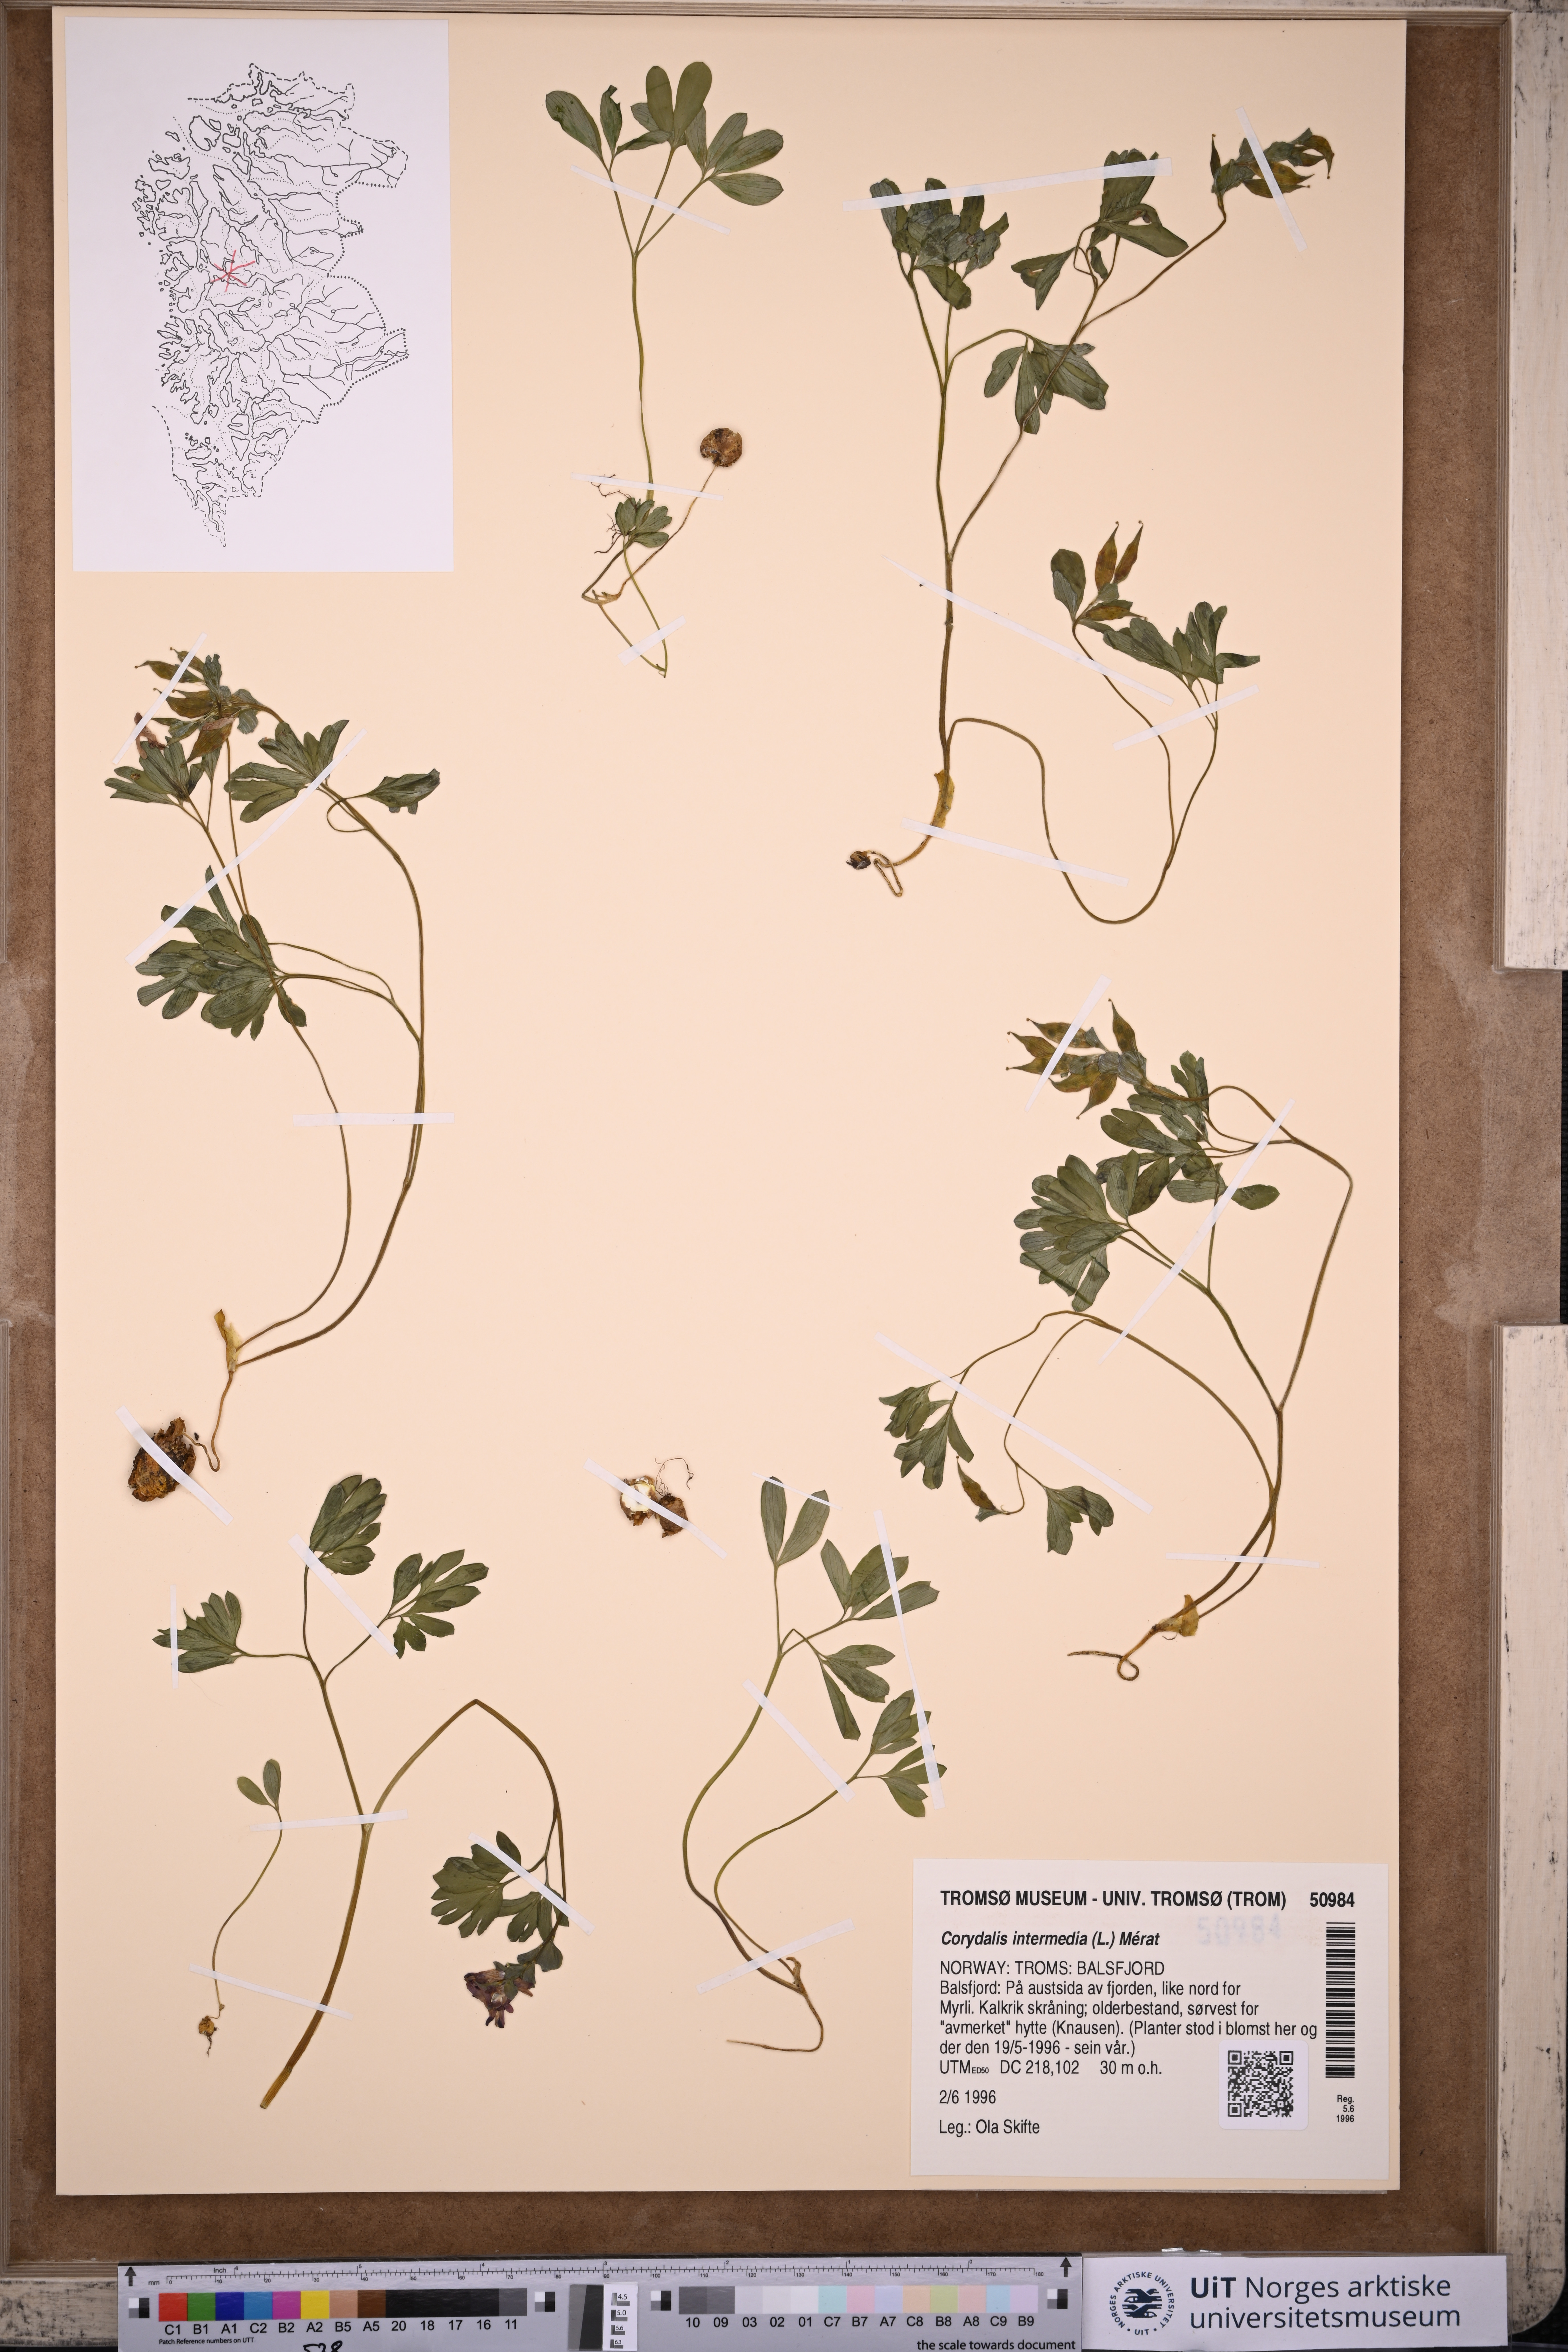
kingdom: Plantae
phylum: Tracheophyta
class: Magnoliopsida
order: Ranunculales
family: Papaveraceae
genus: Corydalis
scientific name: Corydalis intermedia
